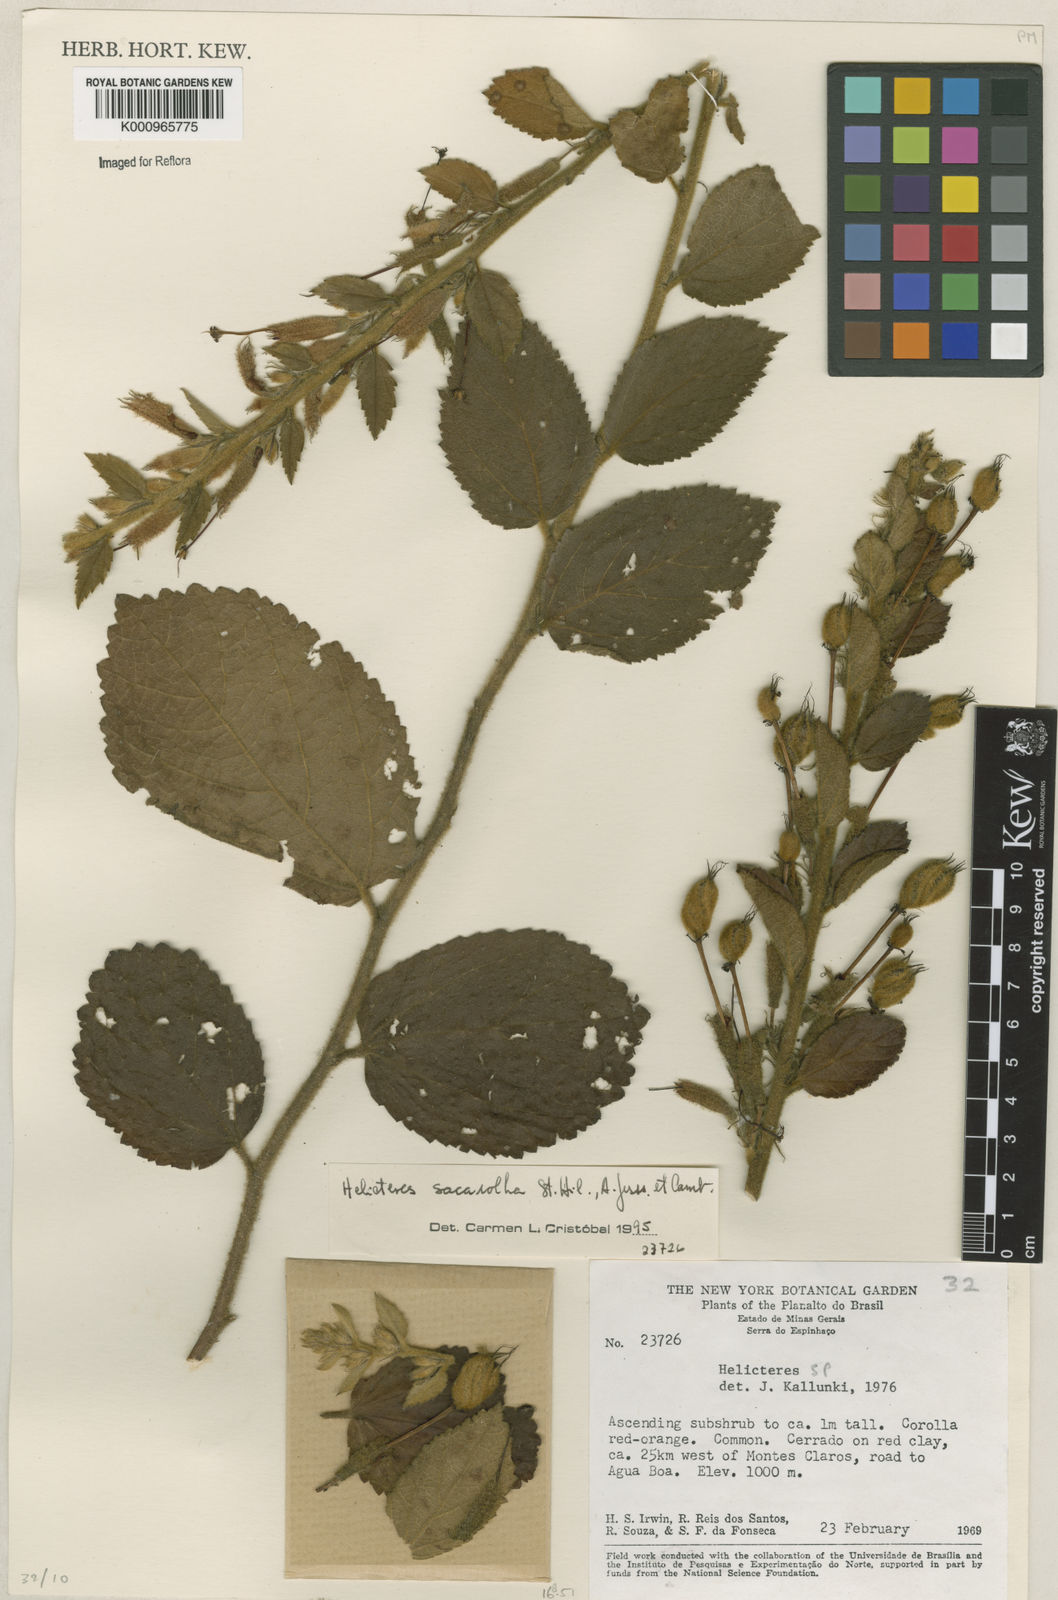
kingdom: Plantae
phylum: Tracheophyta
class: Magnoliopsida
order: Malvales
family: Malvaceae
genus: Helicteres
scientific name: Helicteres
